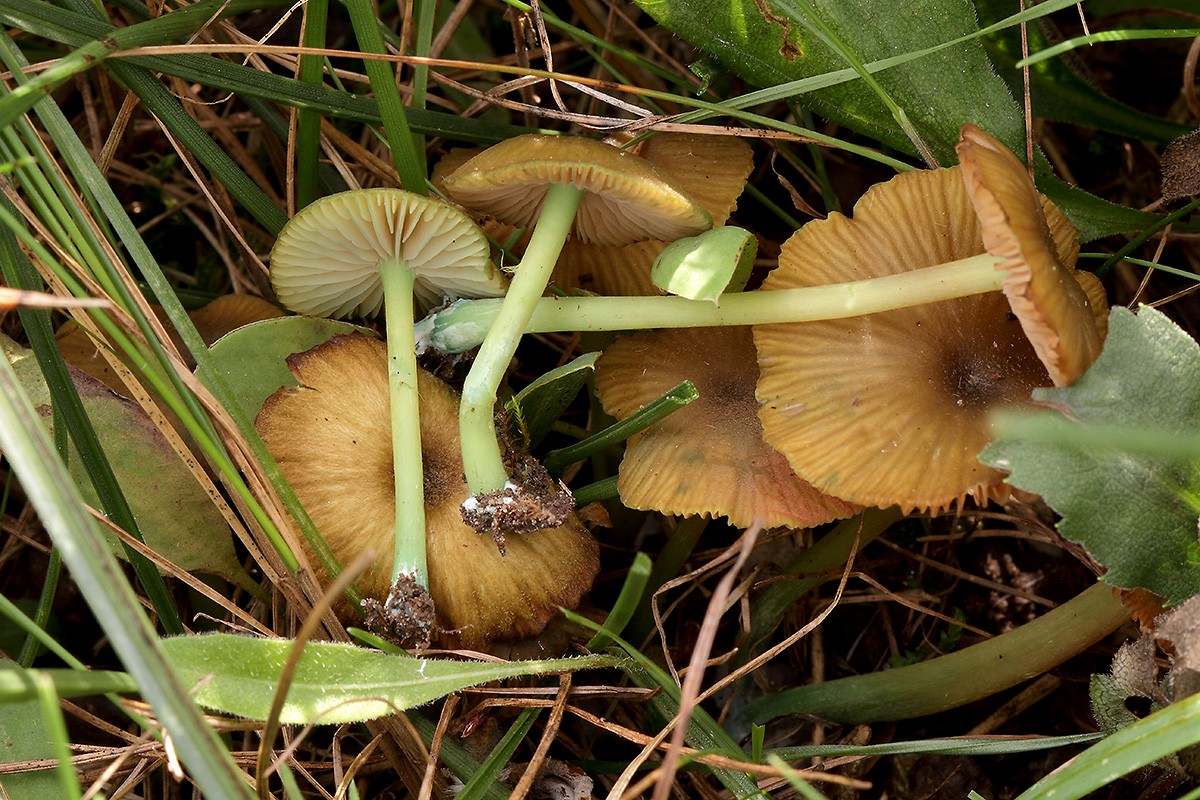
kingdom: Fungi
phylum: Basidiomycota
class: Agaricomycetes
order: Agaricales
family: Entolomataceae
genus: Entoloma
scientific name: Entoloma verae
